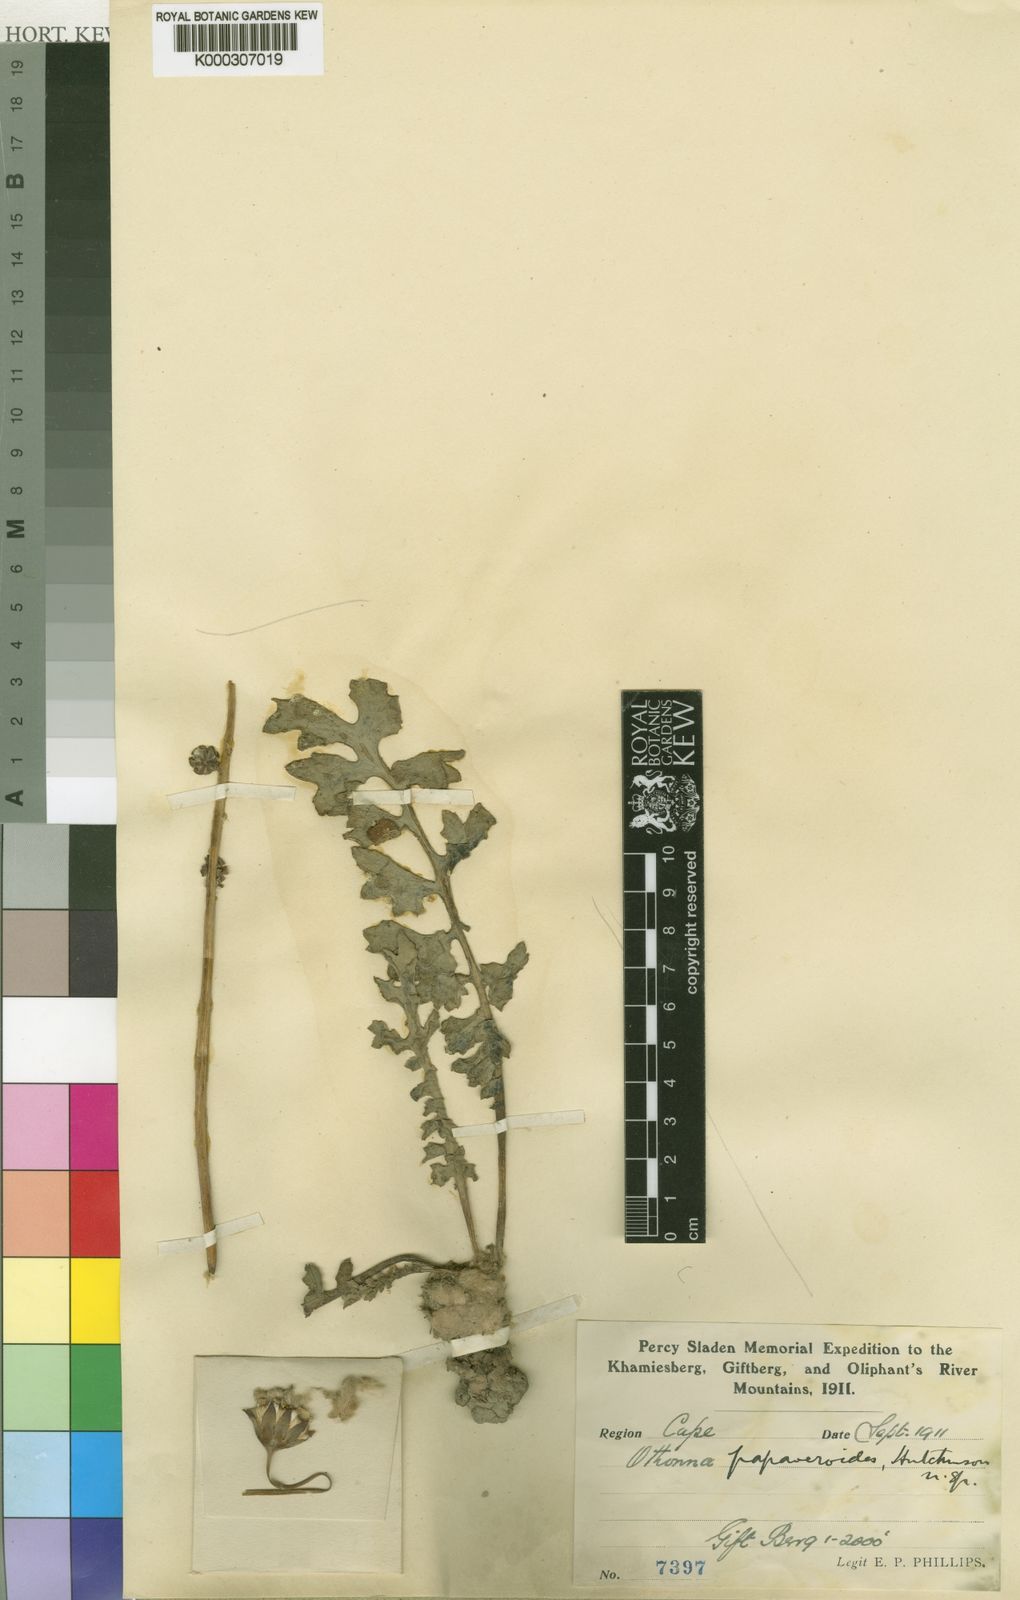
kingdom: Plantae
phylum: Tracheophyta
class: Magnoliopsida
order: Asterales
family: Asteraceae
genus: Othonna
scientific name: Othonna rotundiloba
